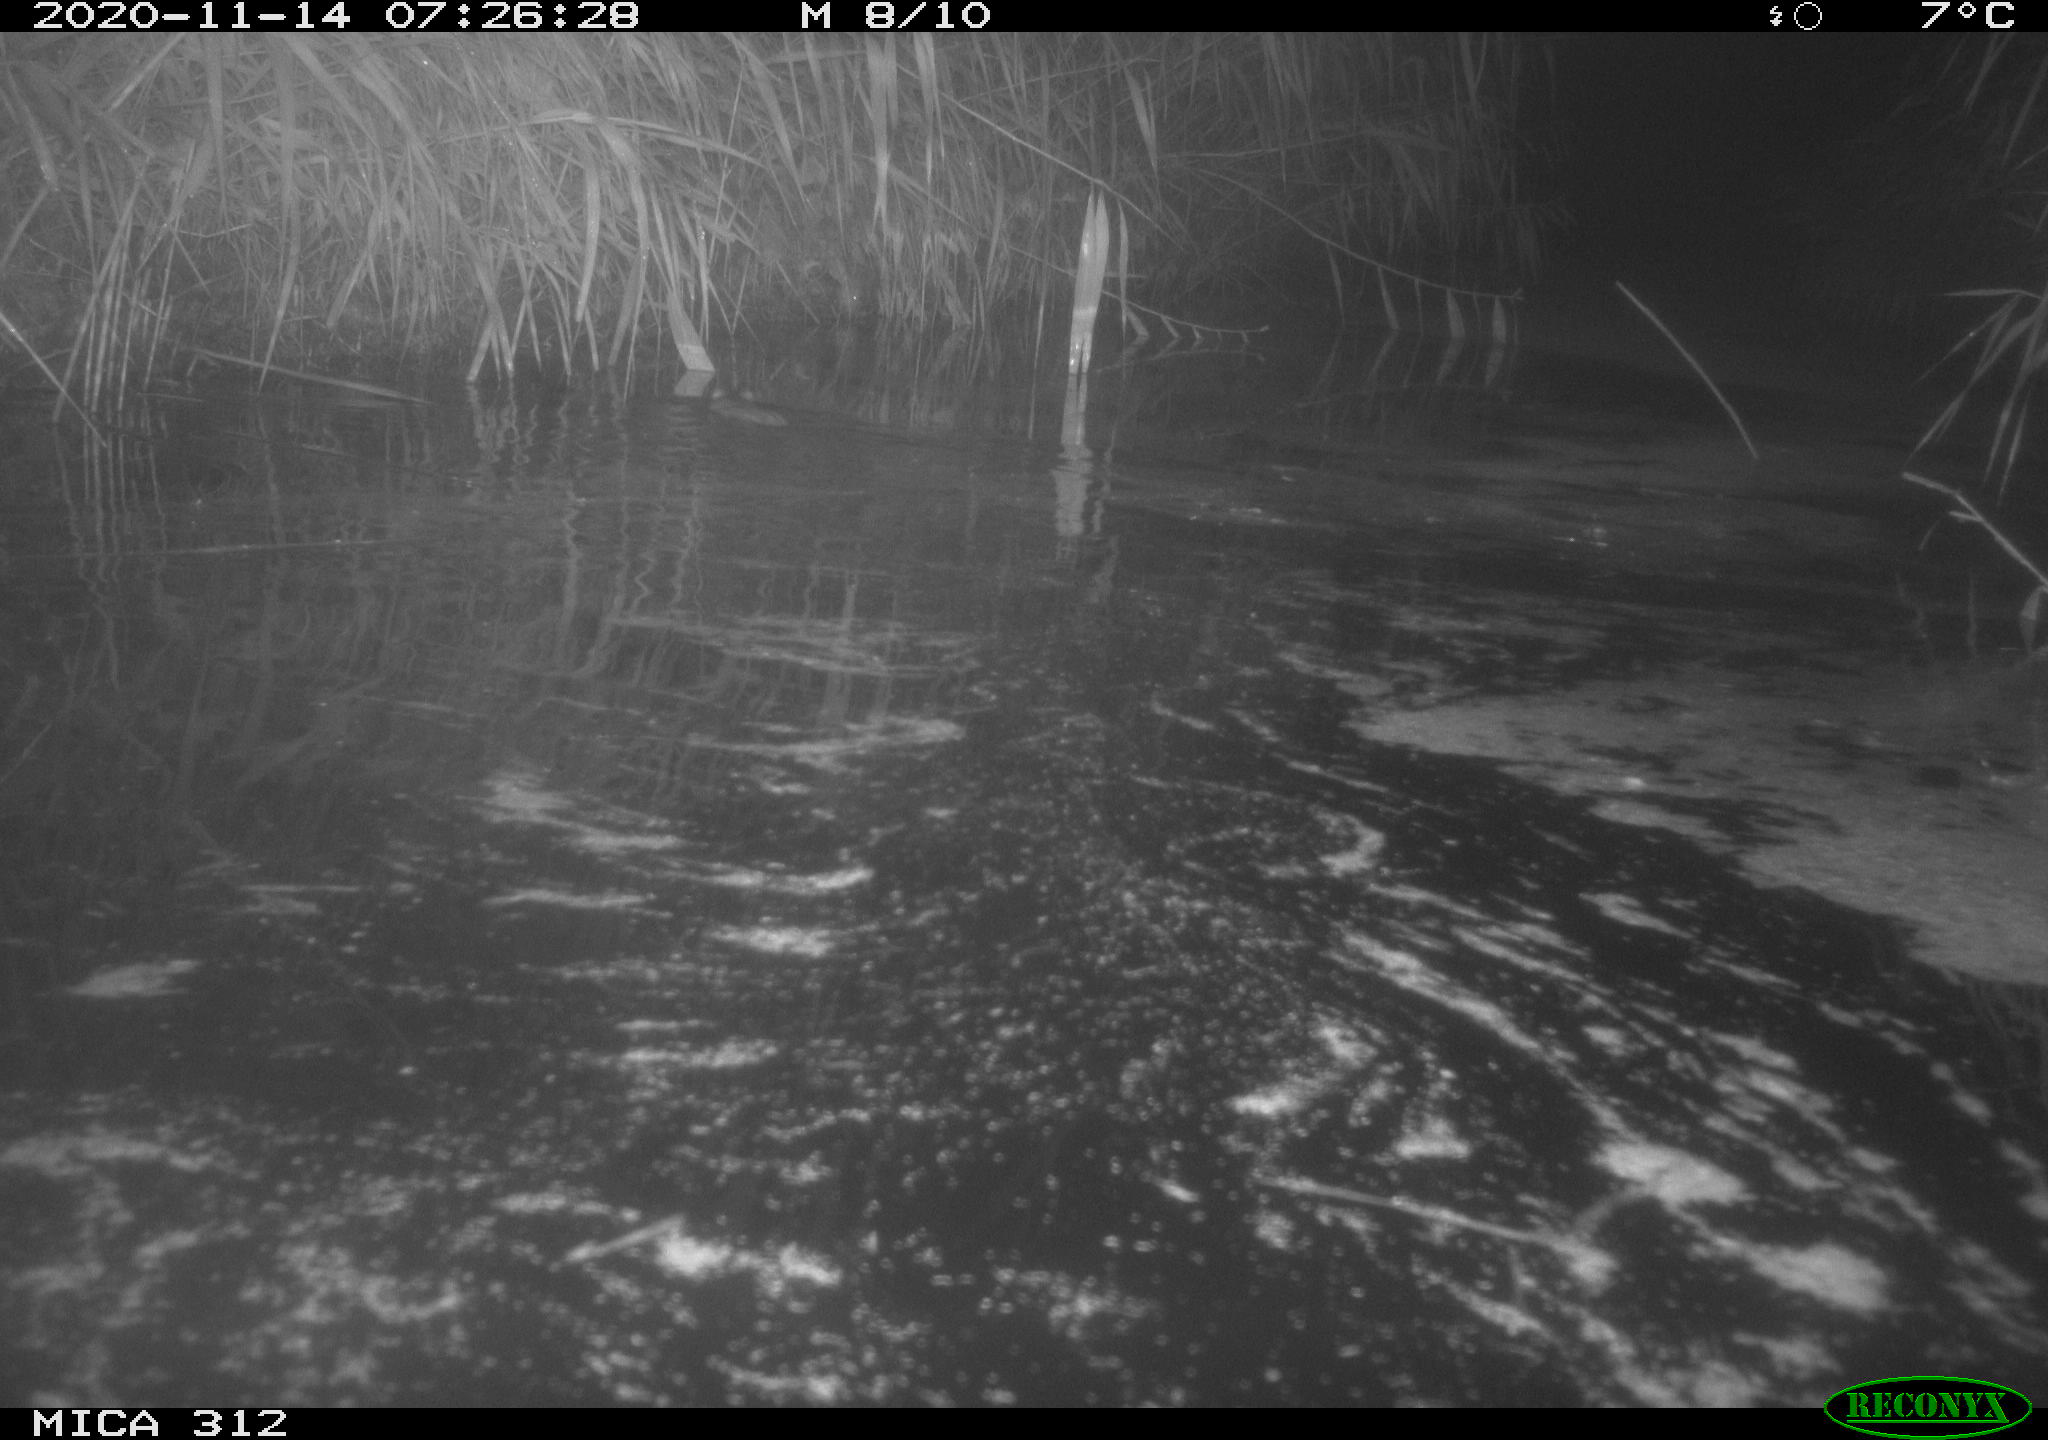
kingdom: Animalia
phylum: Chordata
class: Mammalia
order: Rodentia
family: Muridae
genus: Rattus
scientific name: Rattus norvegicus
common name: Brown rat
